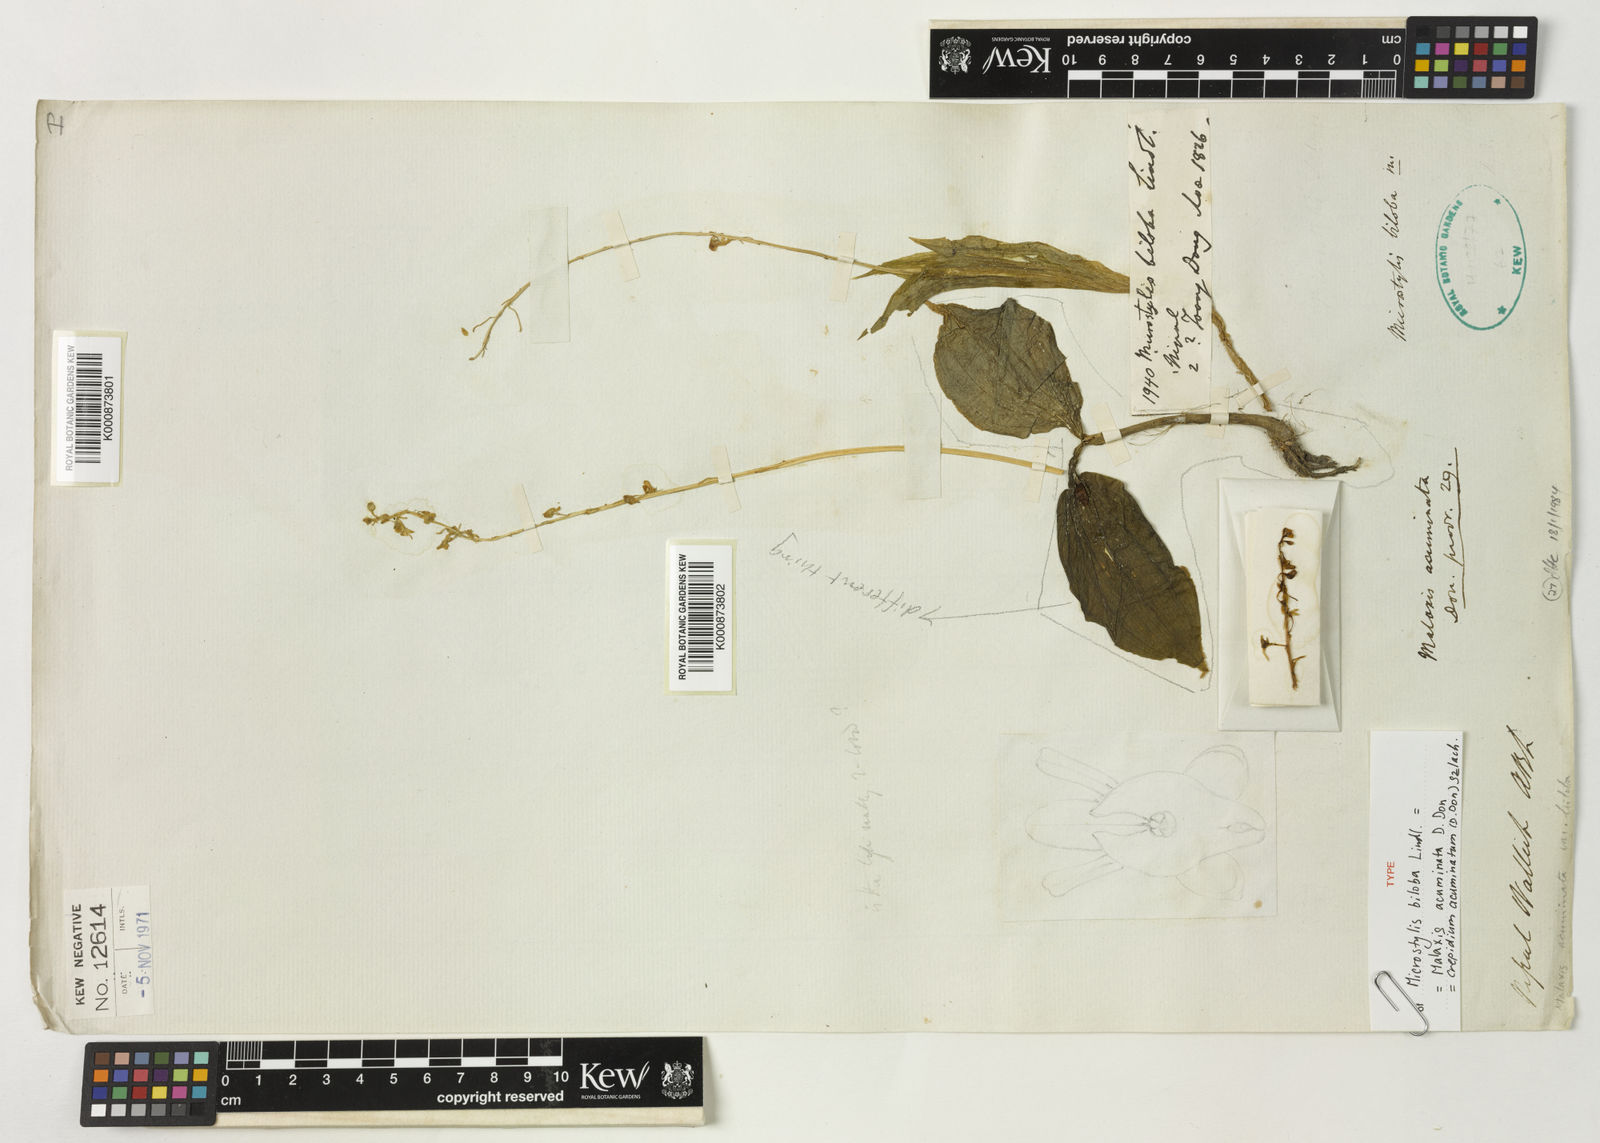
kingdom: Plantae
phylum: Tracheophyta
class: Liliopsida
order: Asparagales
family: Orchidaceae
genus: Crepidium
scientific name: Crepidium acuminatum
